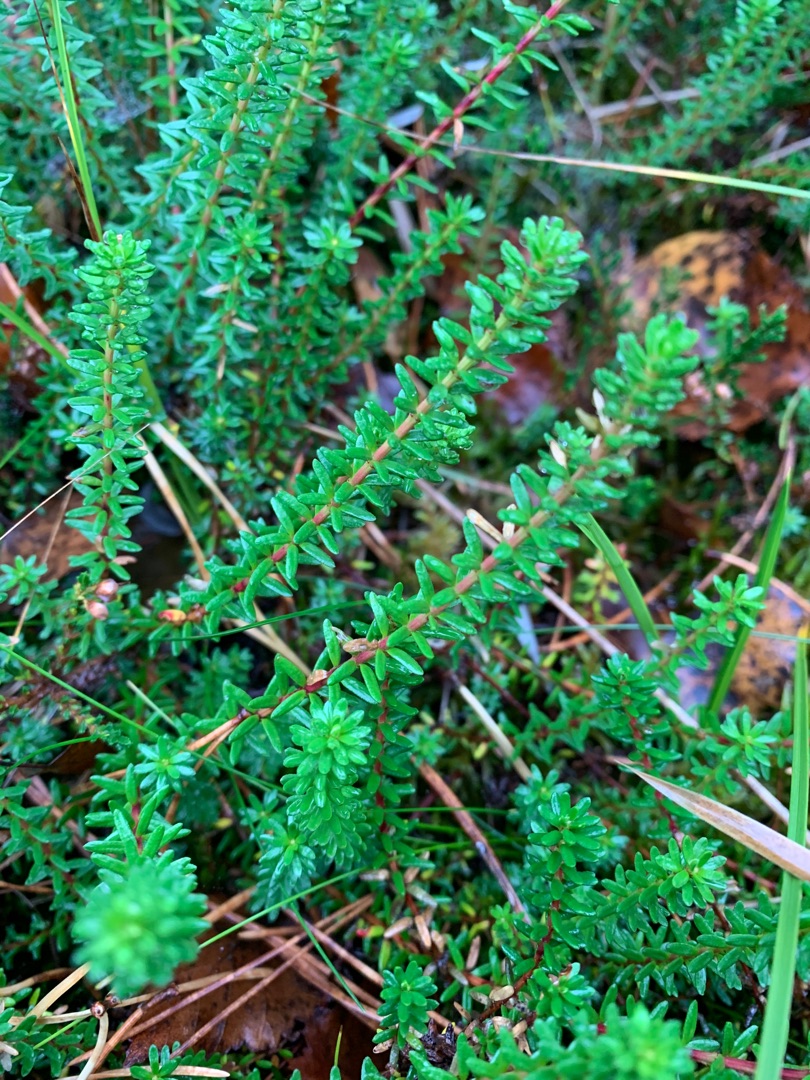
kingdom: Plantae
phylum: Tracheophyta
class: Magnoliopsida
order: Ericales
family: Ericaceae
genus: Empetrum
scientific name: Empetrum nigrum
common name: Revling
